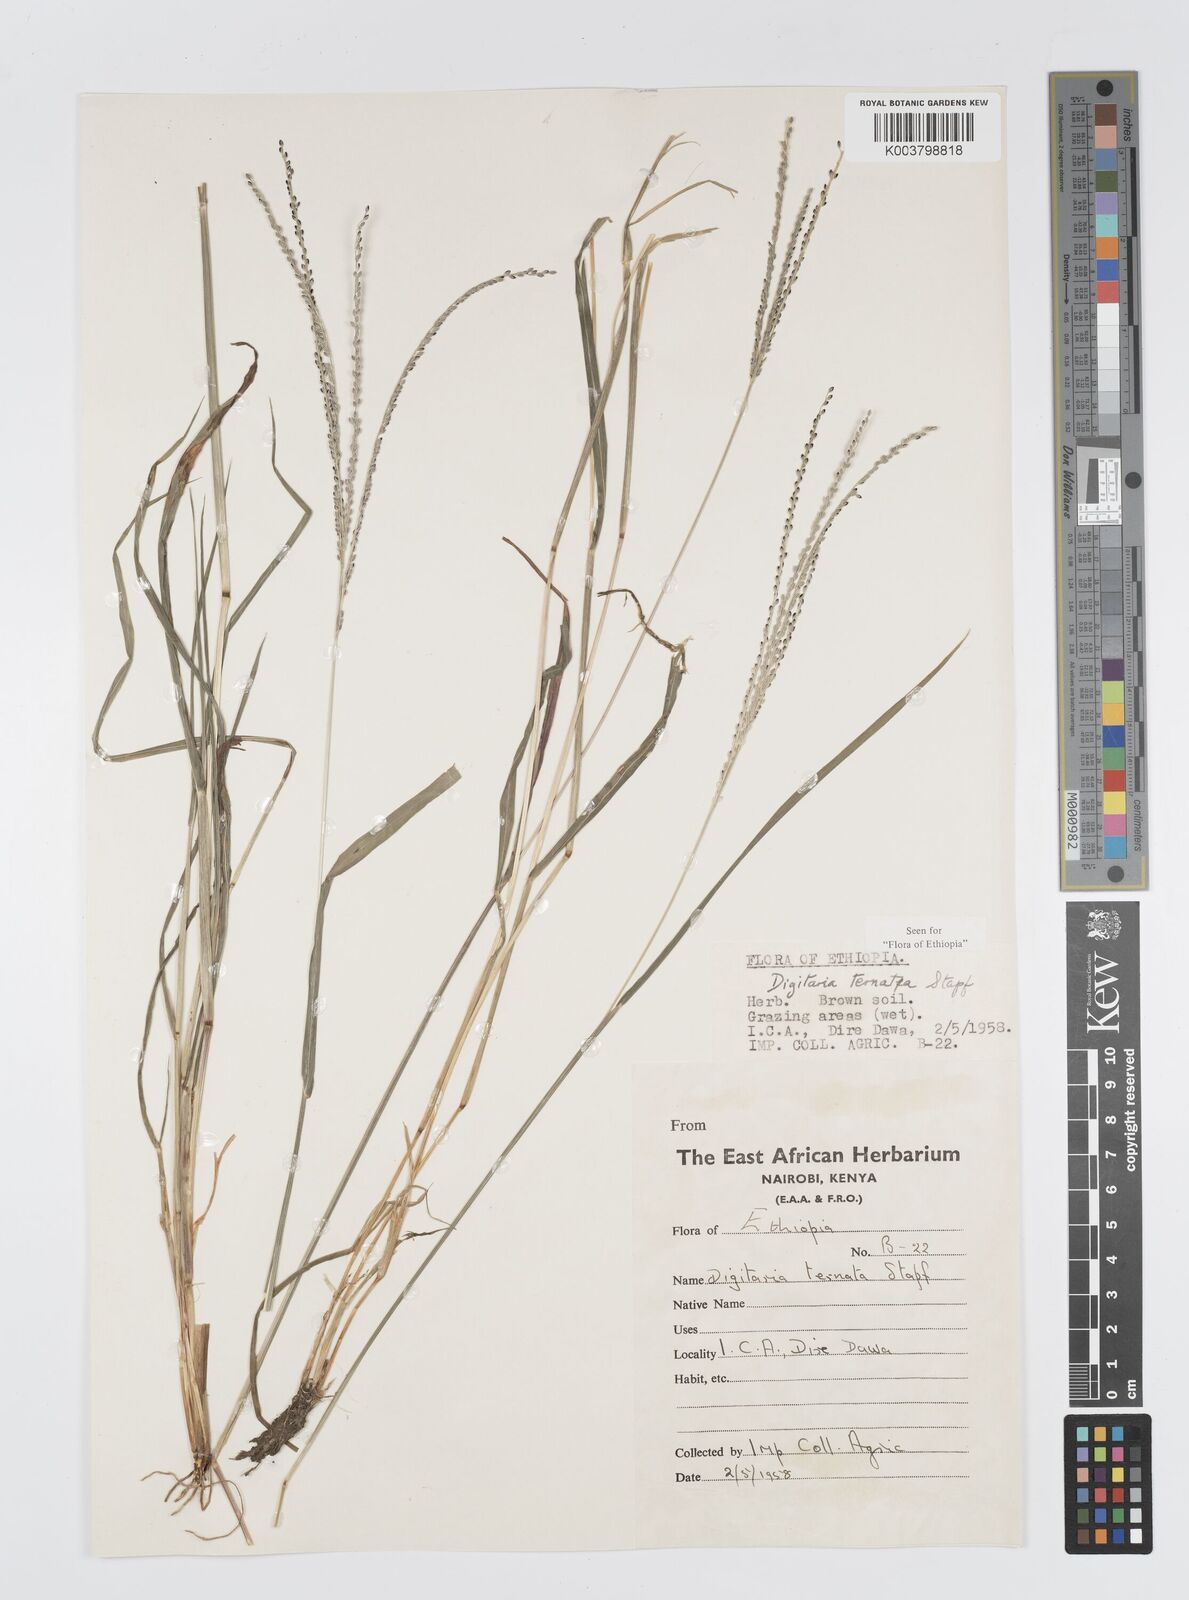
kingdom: Plantae
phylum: Tracheophyta
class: Liliopsida
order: Poales
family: Poaceae
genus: Digitaria
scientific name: Digitaria ternata
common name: Blackseed crabgrass
